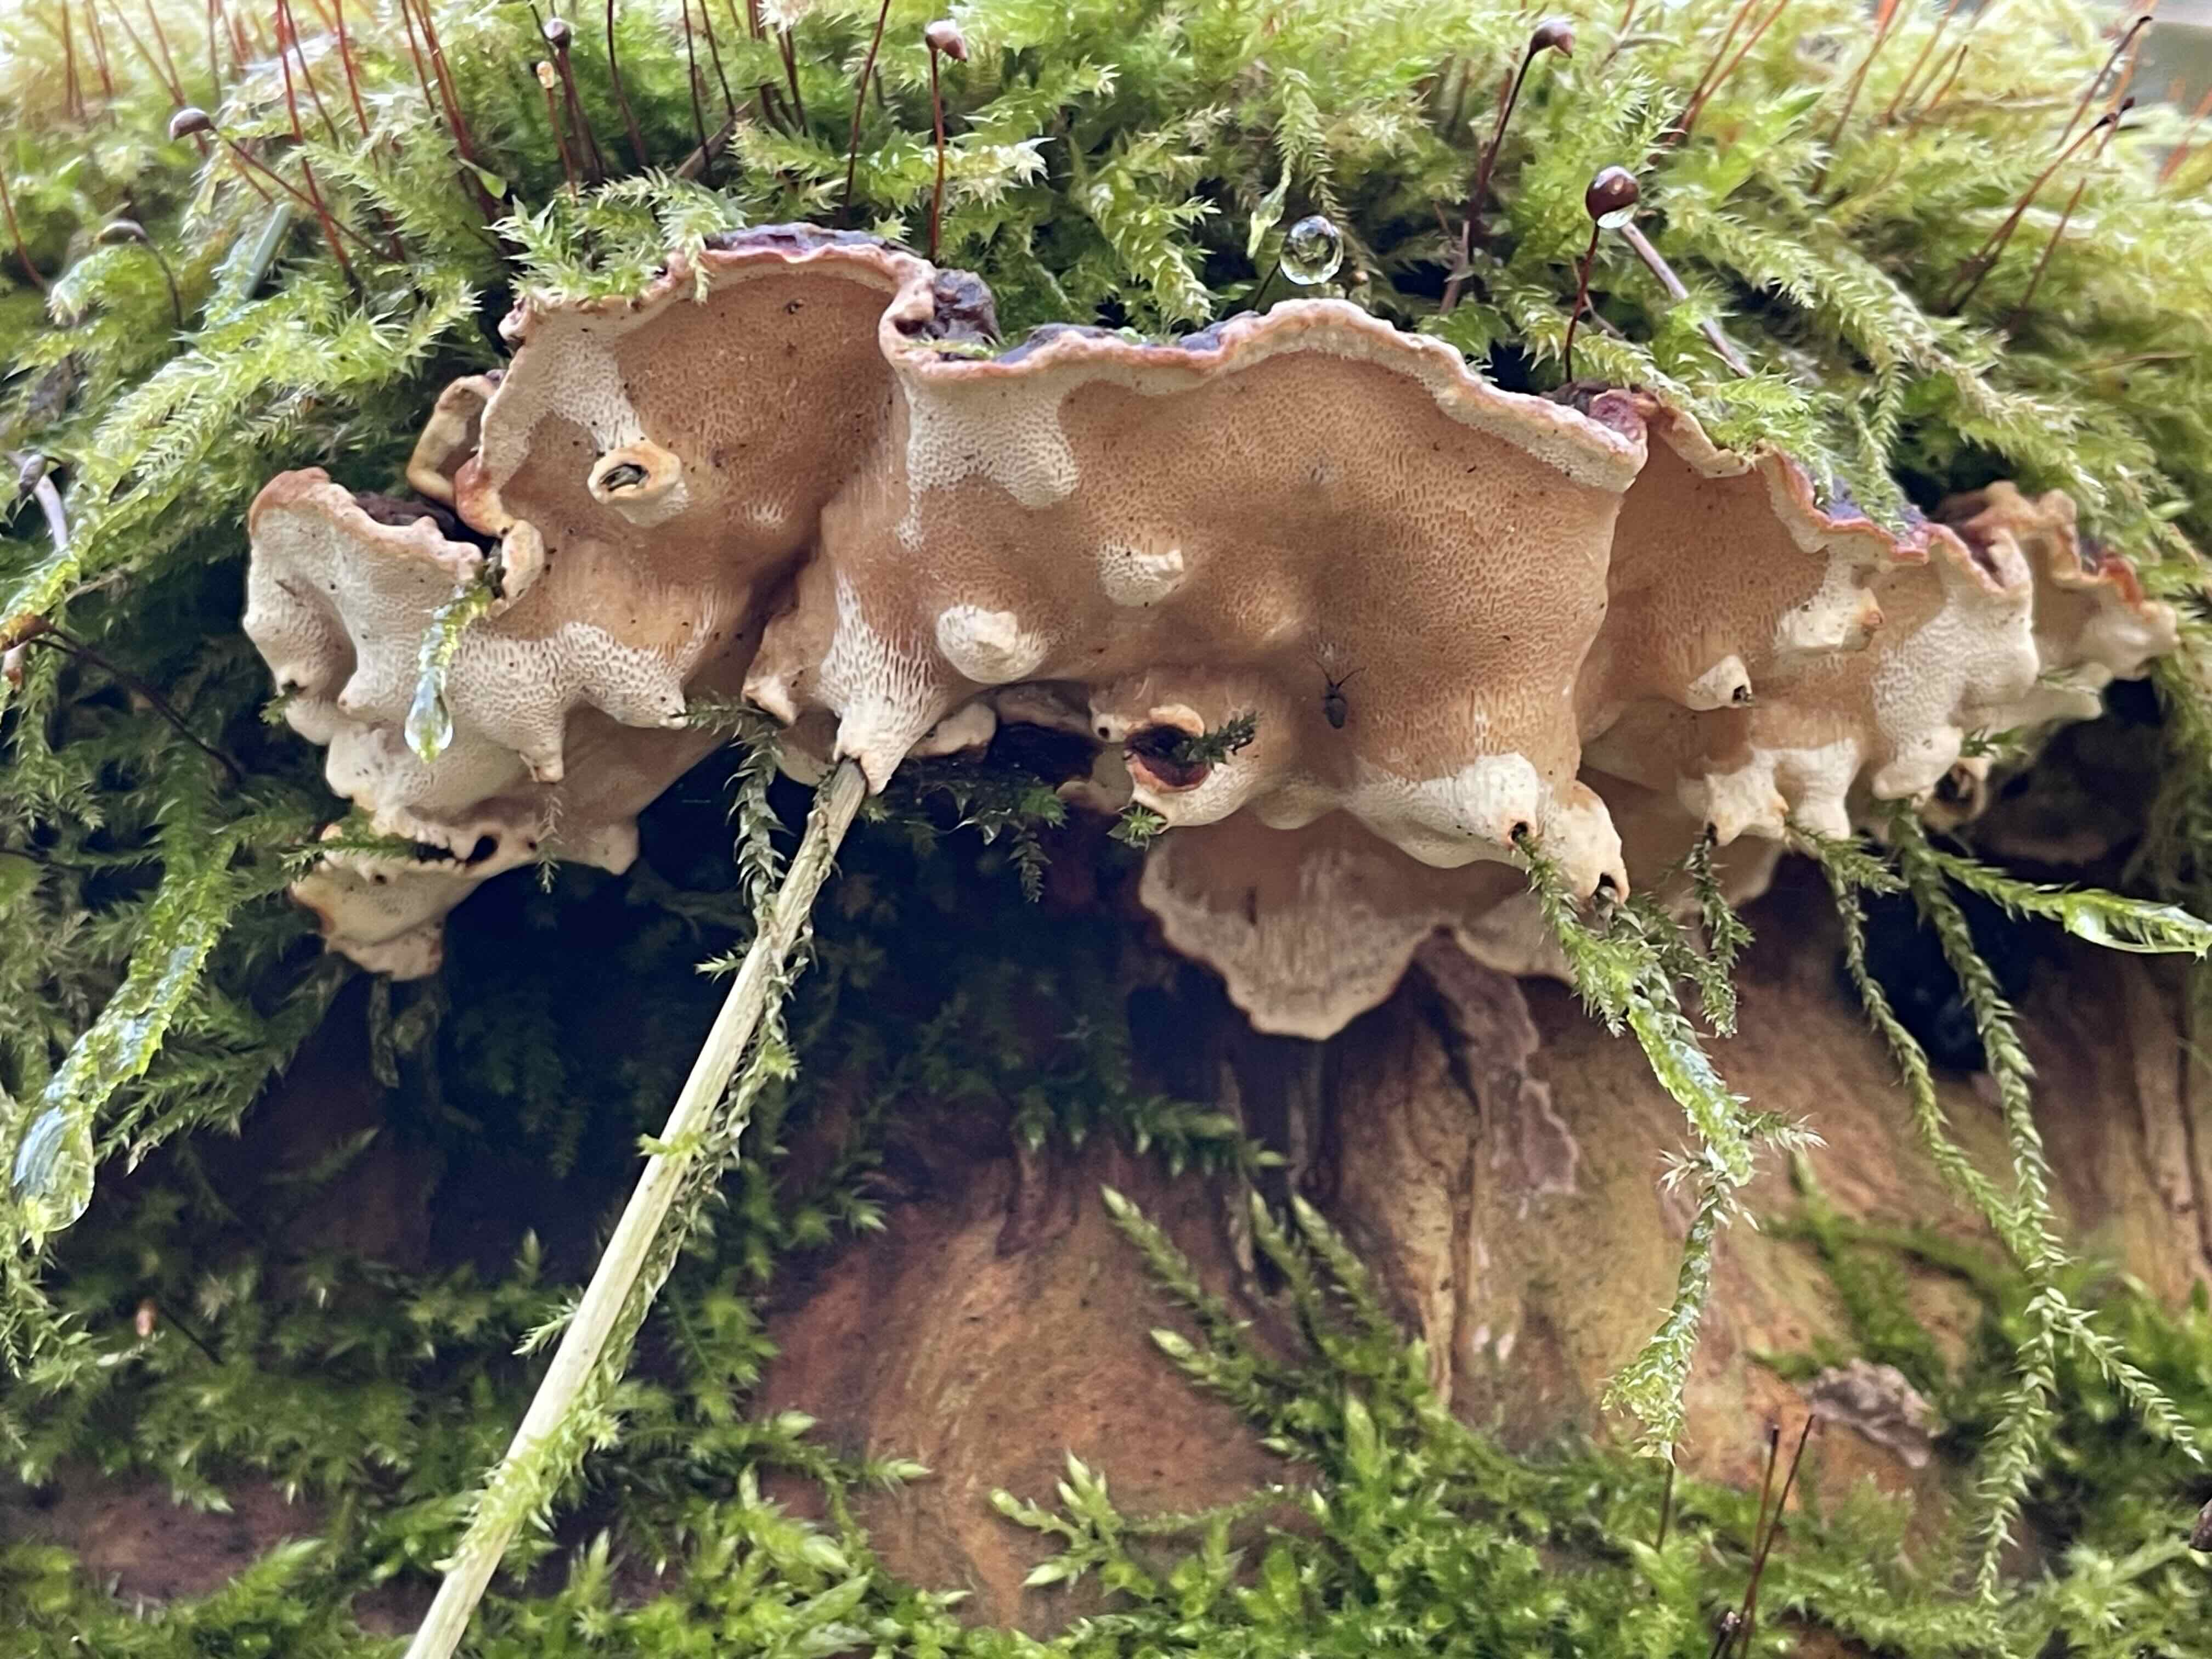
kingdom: Fungi
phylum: Basidiomycota
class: Agaricomycetes
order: Russulales
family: Bondarzewiaceae
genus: Heterobasidion
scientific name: Heterobasidion
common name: rodfordærver
